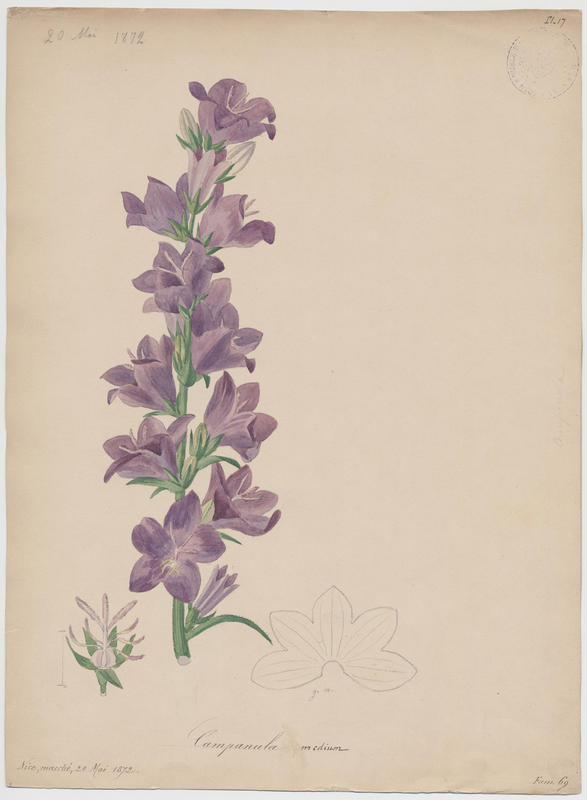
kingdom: Plantae
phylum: Tracheophyta
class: Magnoliopsida
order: Asterales
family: Campanulaceae
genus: Campanula
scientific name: Campanula medium
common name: Canterbury bells
